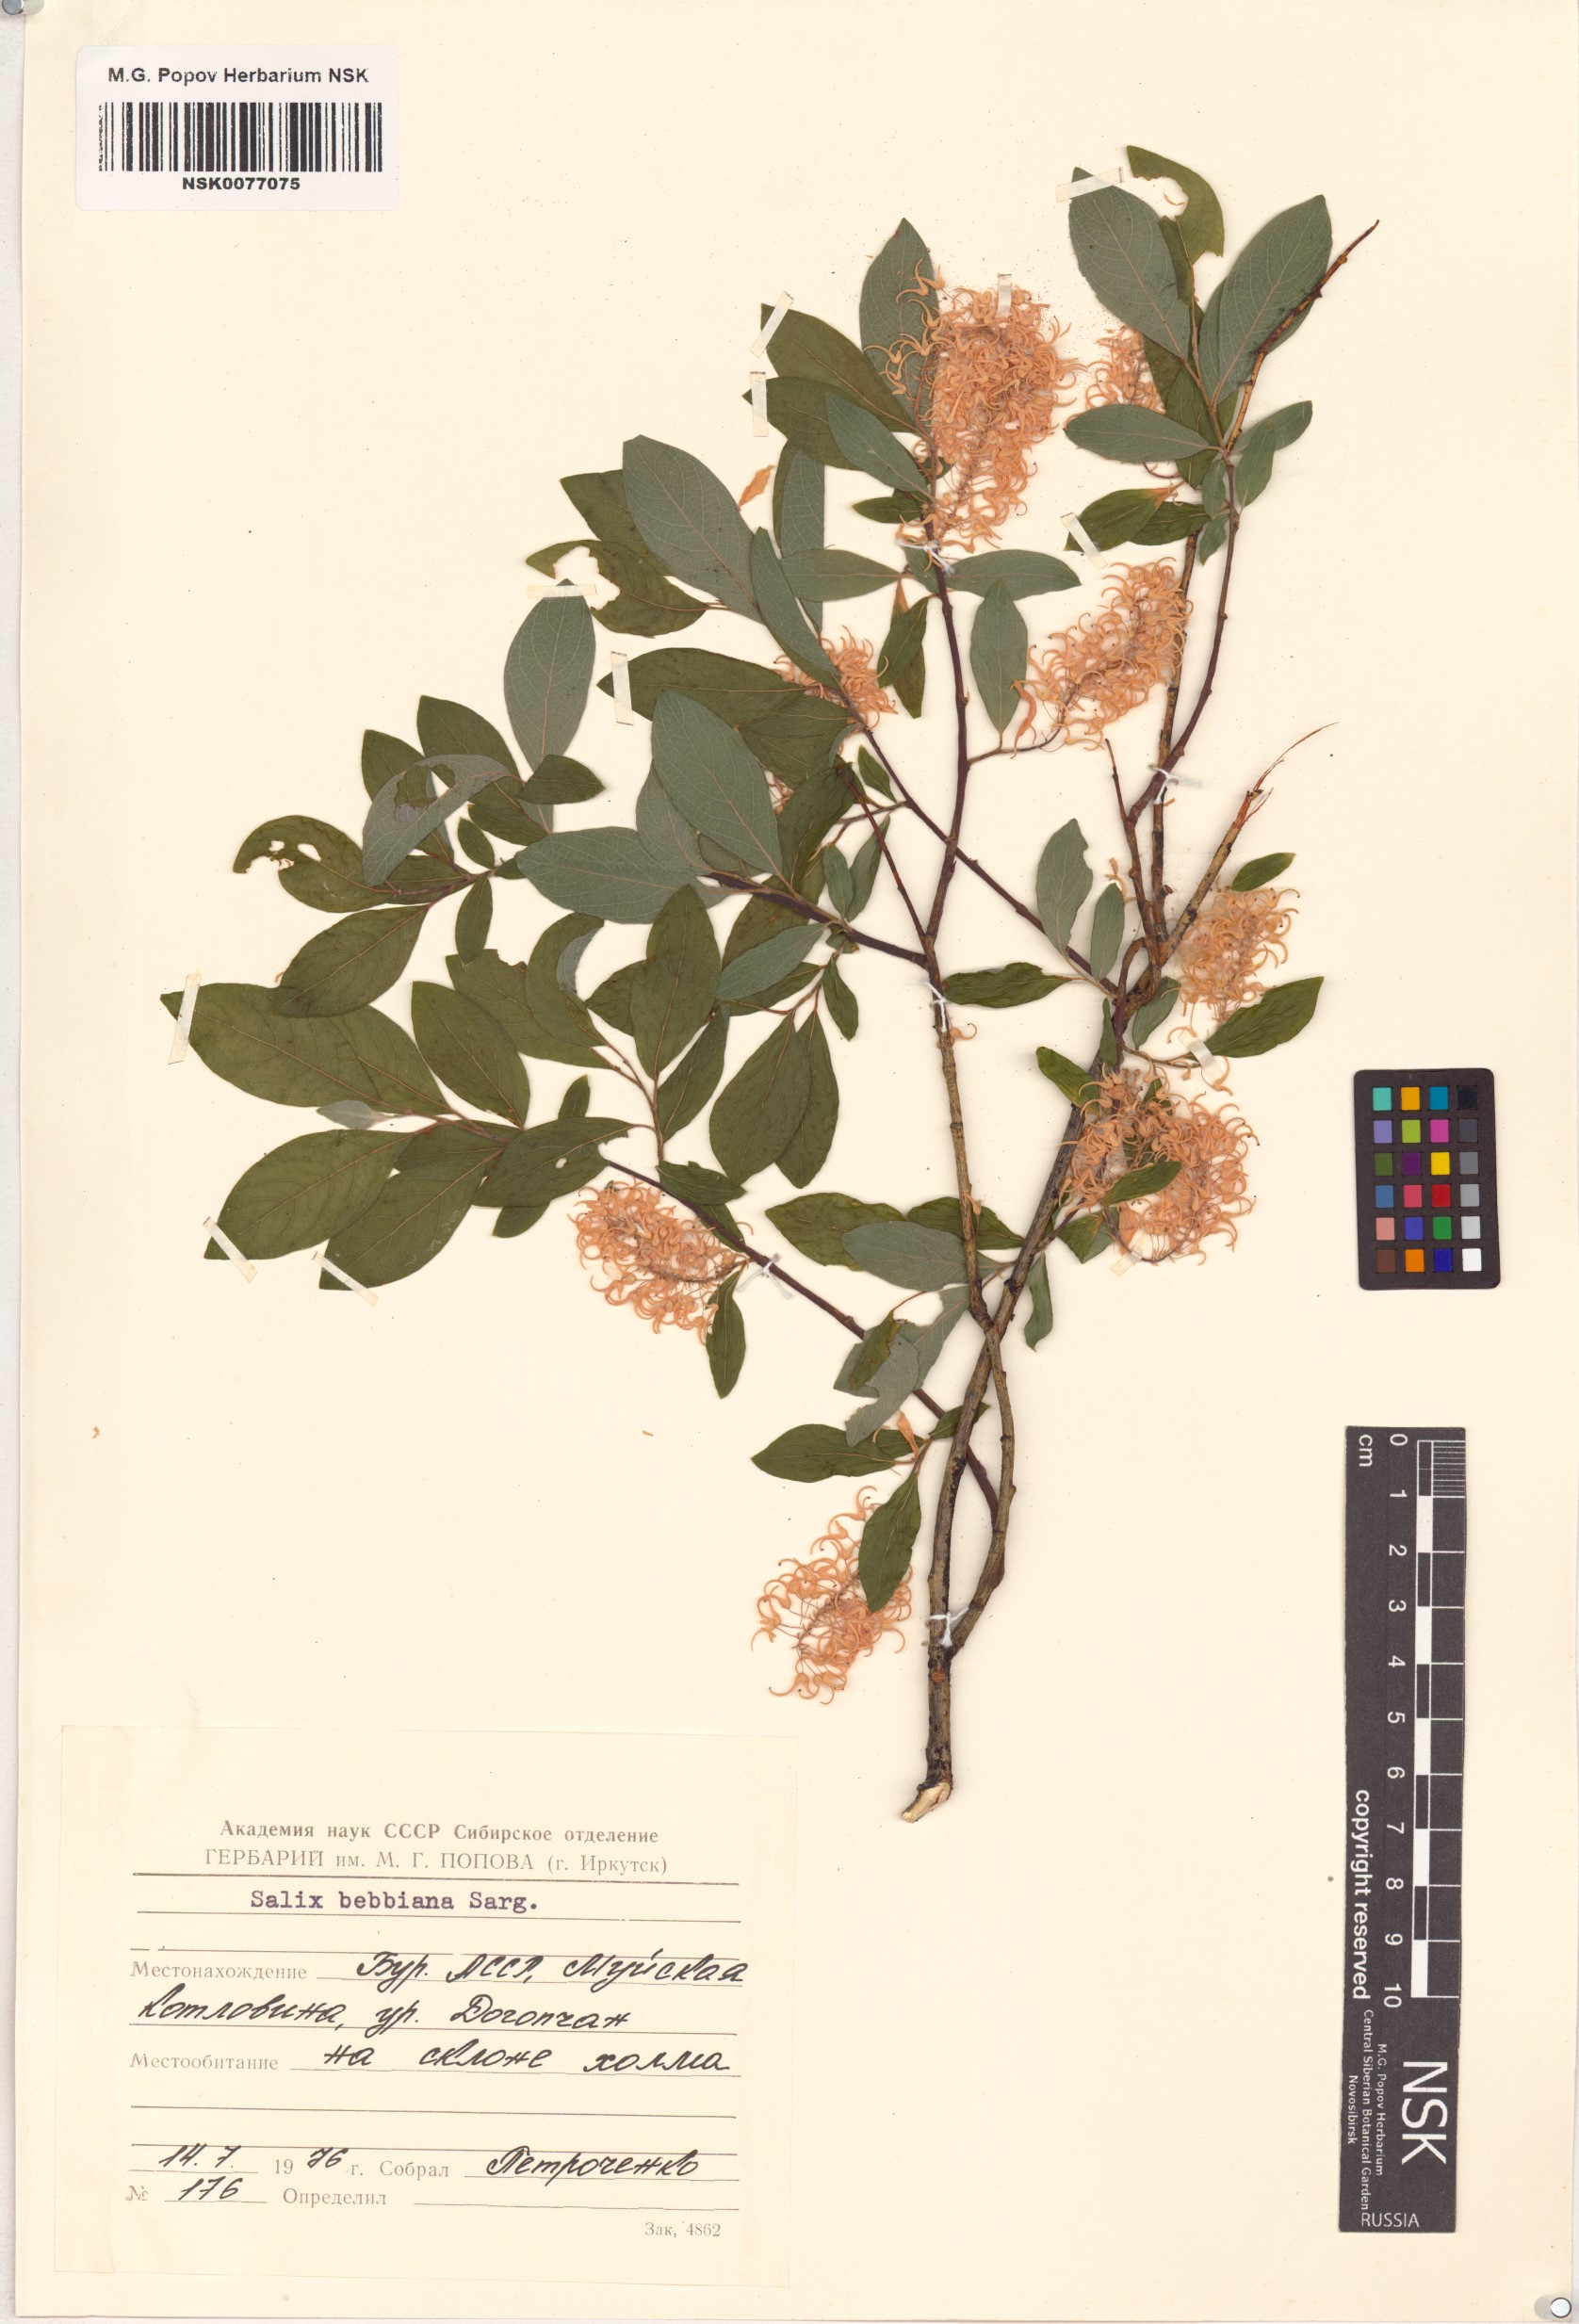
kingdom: Plantae
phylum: Tracheophyta
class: Magnoliopsida
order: Malpighiales
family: Salicaceae
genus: Salix
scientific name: Salix bebbiana
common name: Bebb's willow
